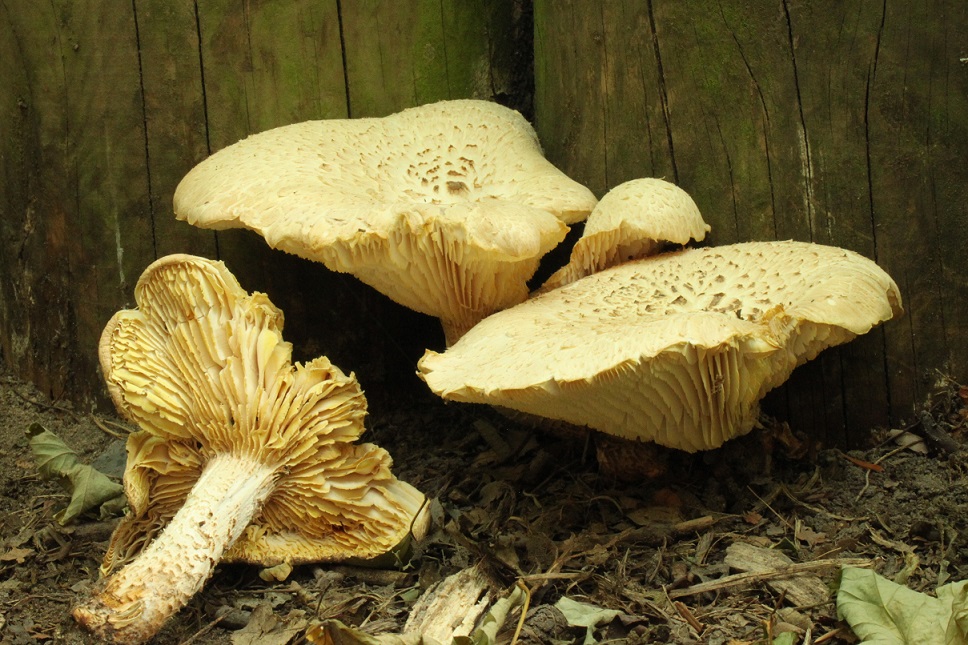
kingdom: Fungi
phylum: Basidiomycota
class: Agaricomycetes
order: Gloeophyllales
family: Gloeophyllaceae
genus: Neolentinus
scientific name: Neolentinus lepideus
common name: skællet sejhat
